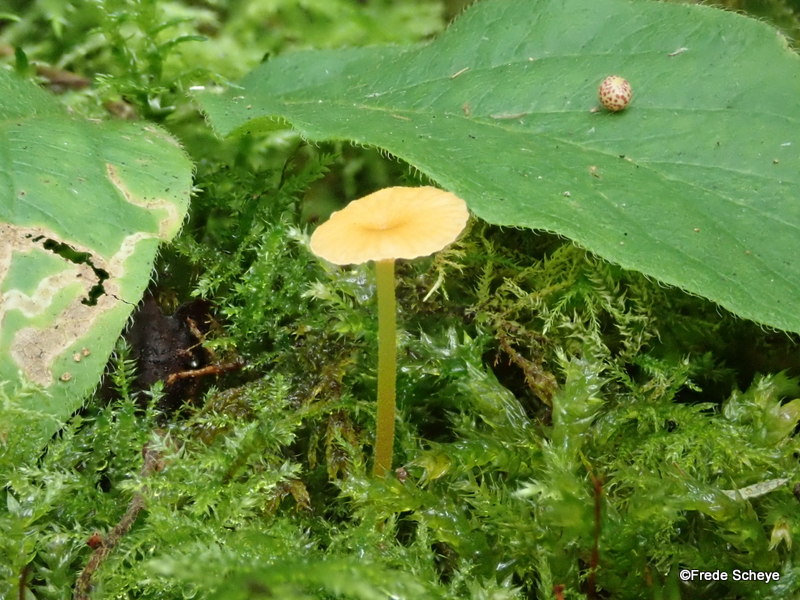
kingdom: Fungi
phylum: Basidiomycota
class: Agaricomycetes
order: Hymenochaetales
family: Rickenellaceae
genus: Rickenella
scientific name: Rickenella fibula
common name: orange mosnavlehat
